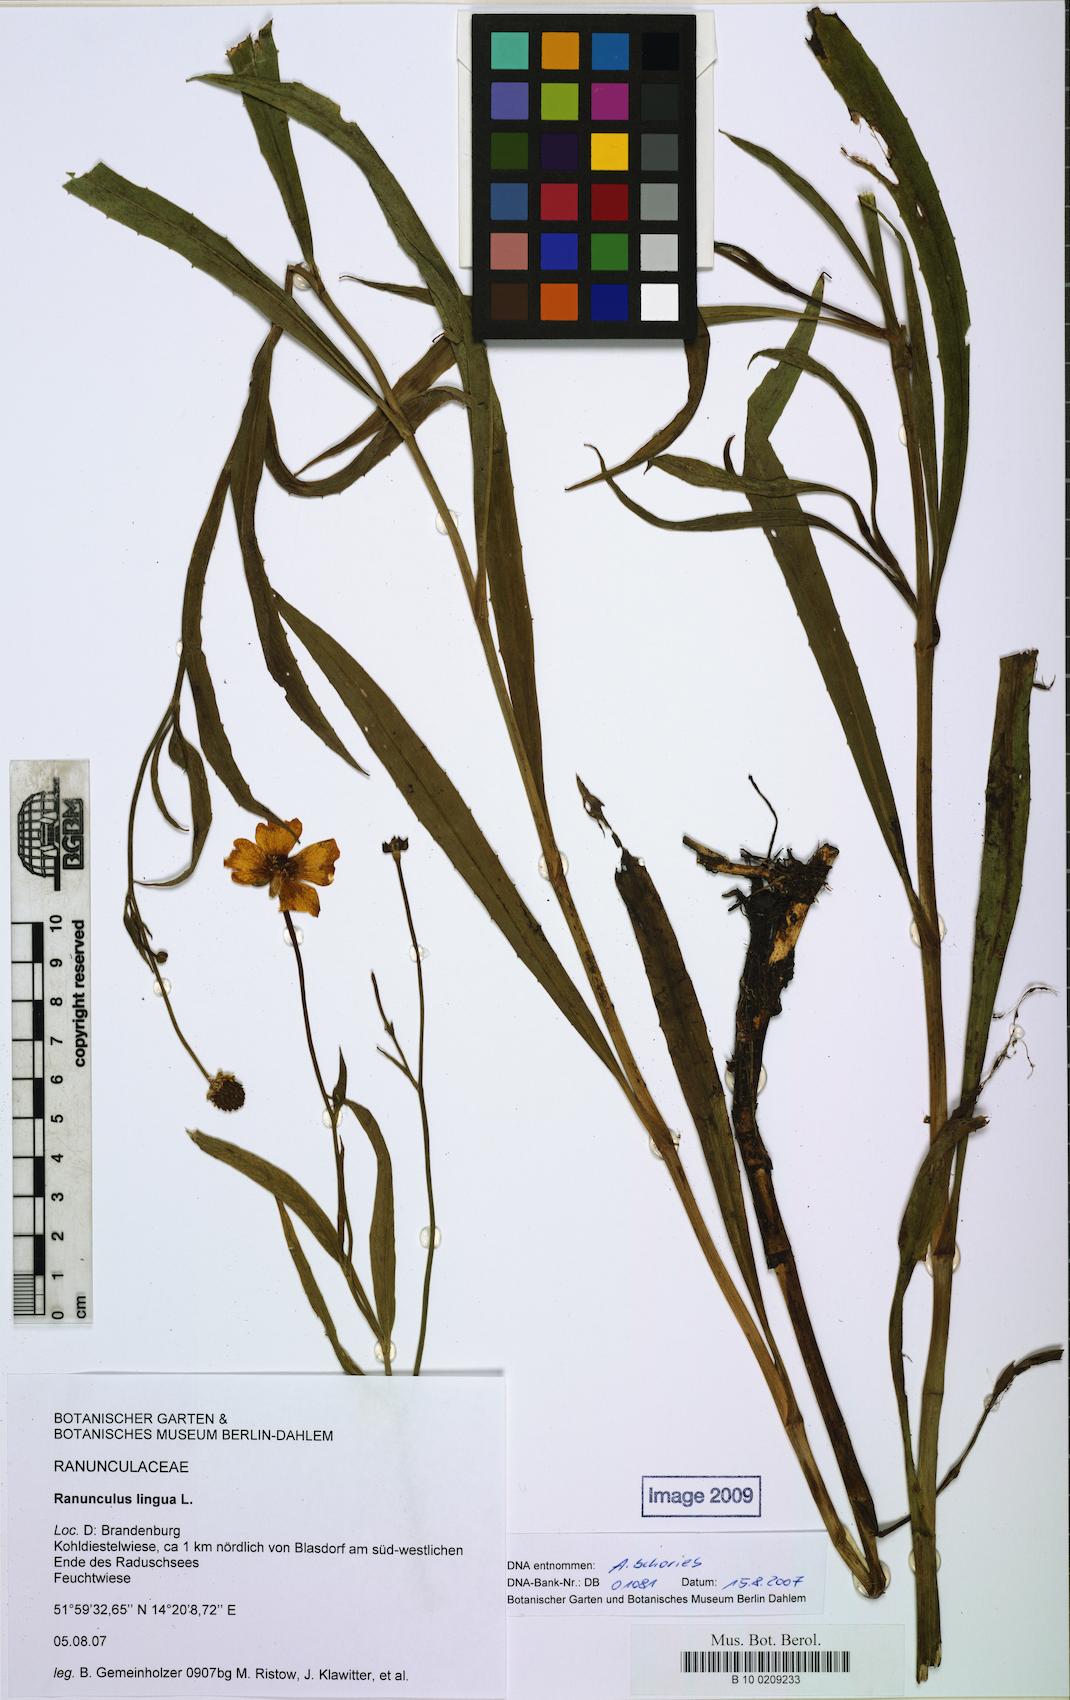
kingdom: Plantae
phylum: Tracheophyta
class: Magnoliopsida
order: Ranunculales
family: Ranunculaceae
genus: Ranunculus
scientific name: Ranunculus lingua
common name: Greater spearwort
